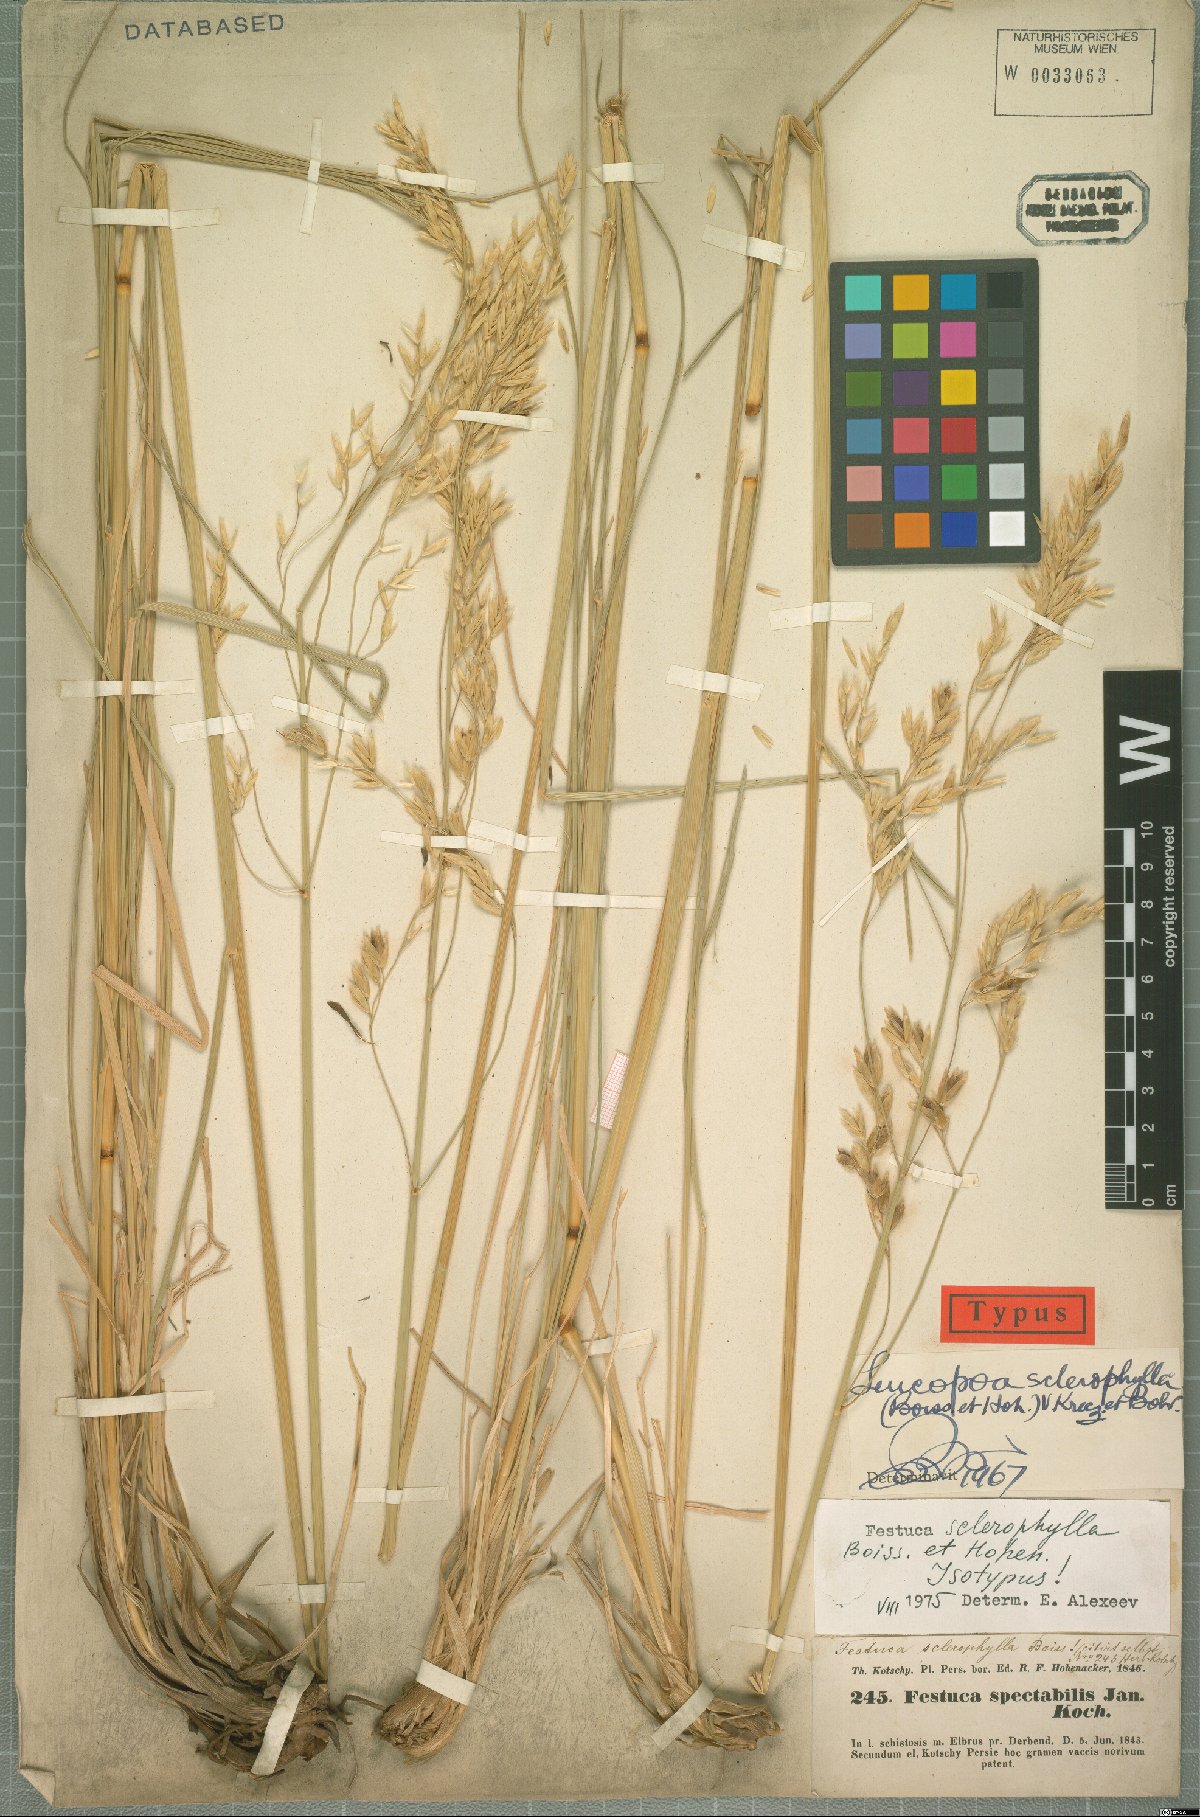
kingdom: Plantae
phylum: Tracheophyta
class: Liliopsida
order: Poales
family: Poaceae
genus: Festuca
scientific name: Festuca sclerophylla
